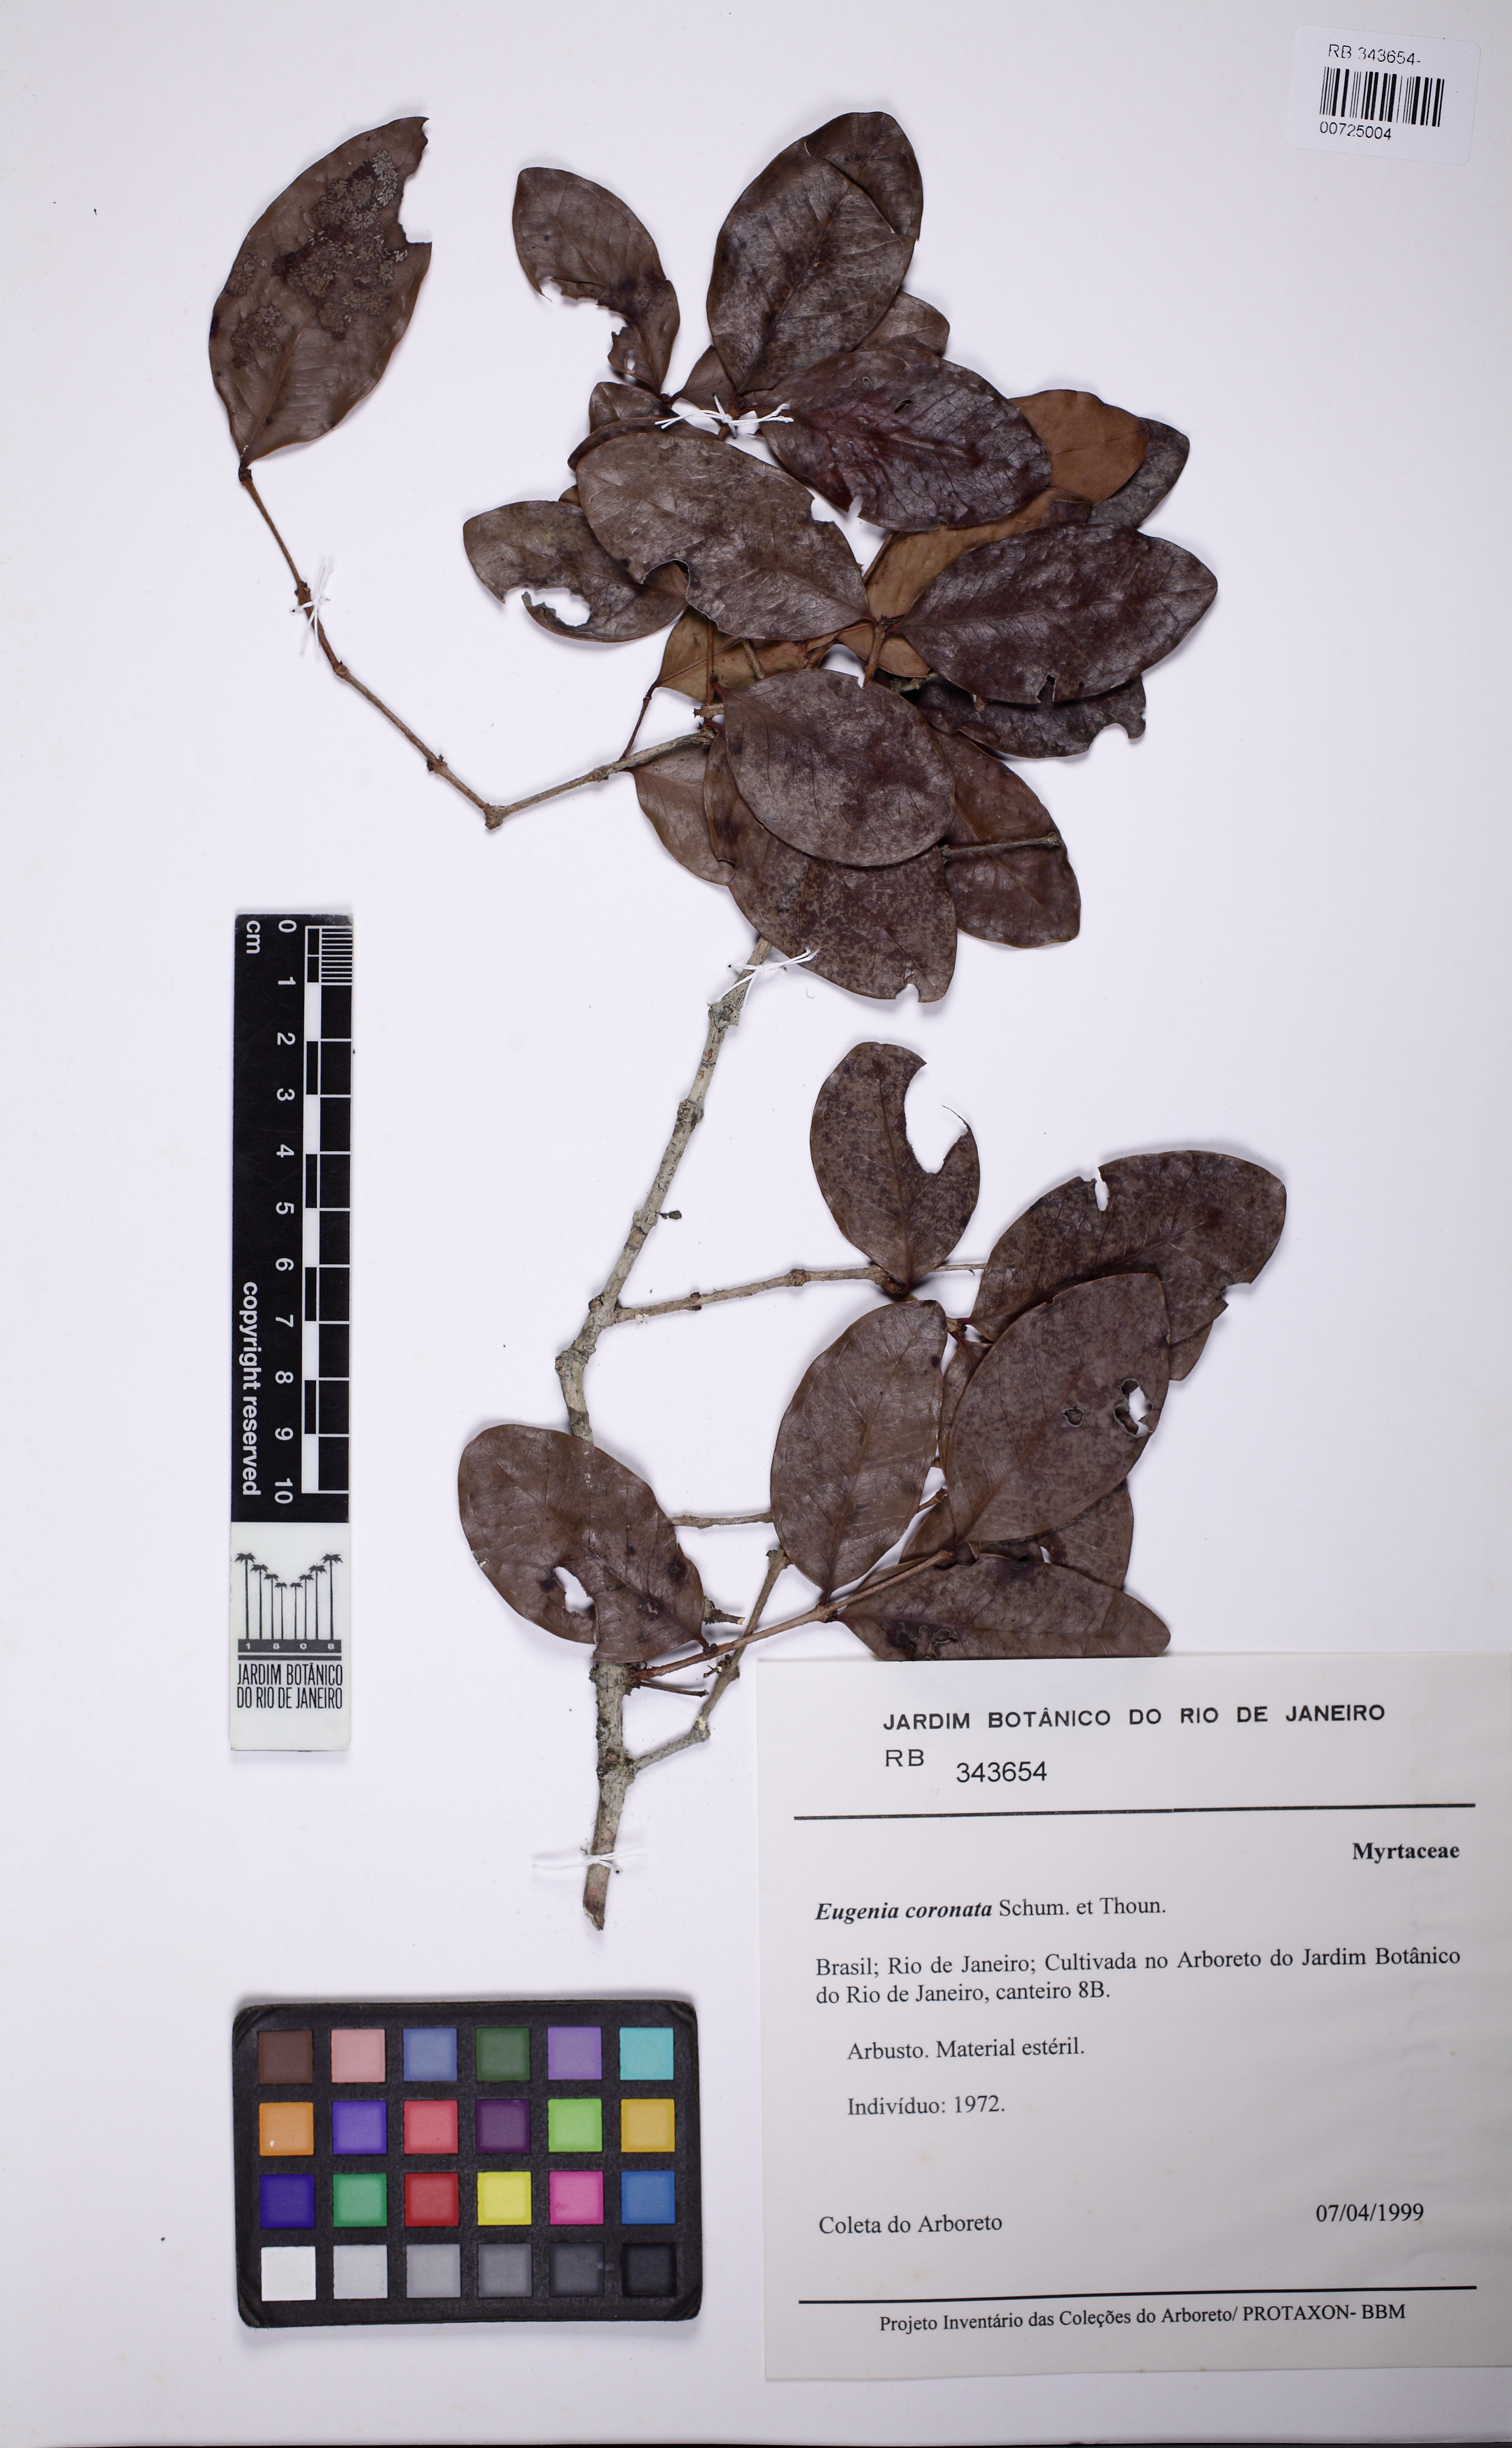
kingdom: Plantae
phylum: Tracheophyta
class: Magnoliopsida
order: Myrtales
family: Myrtaceae
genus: Eugenia
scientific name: Eugenia coronata
